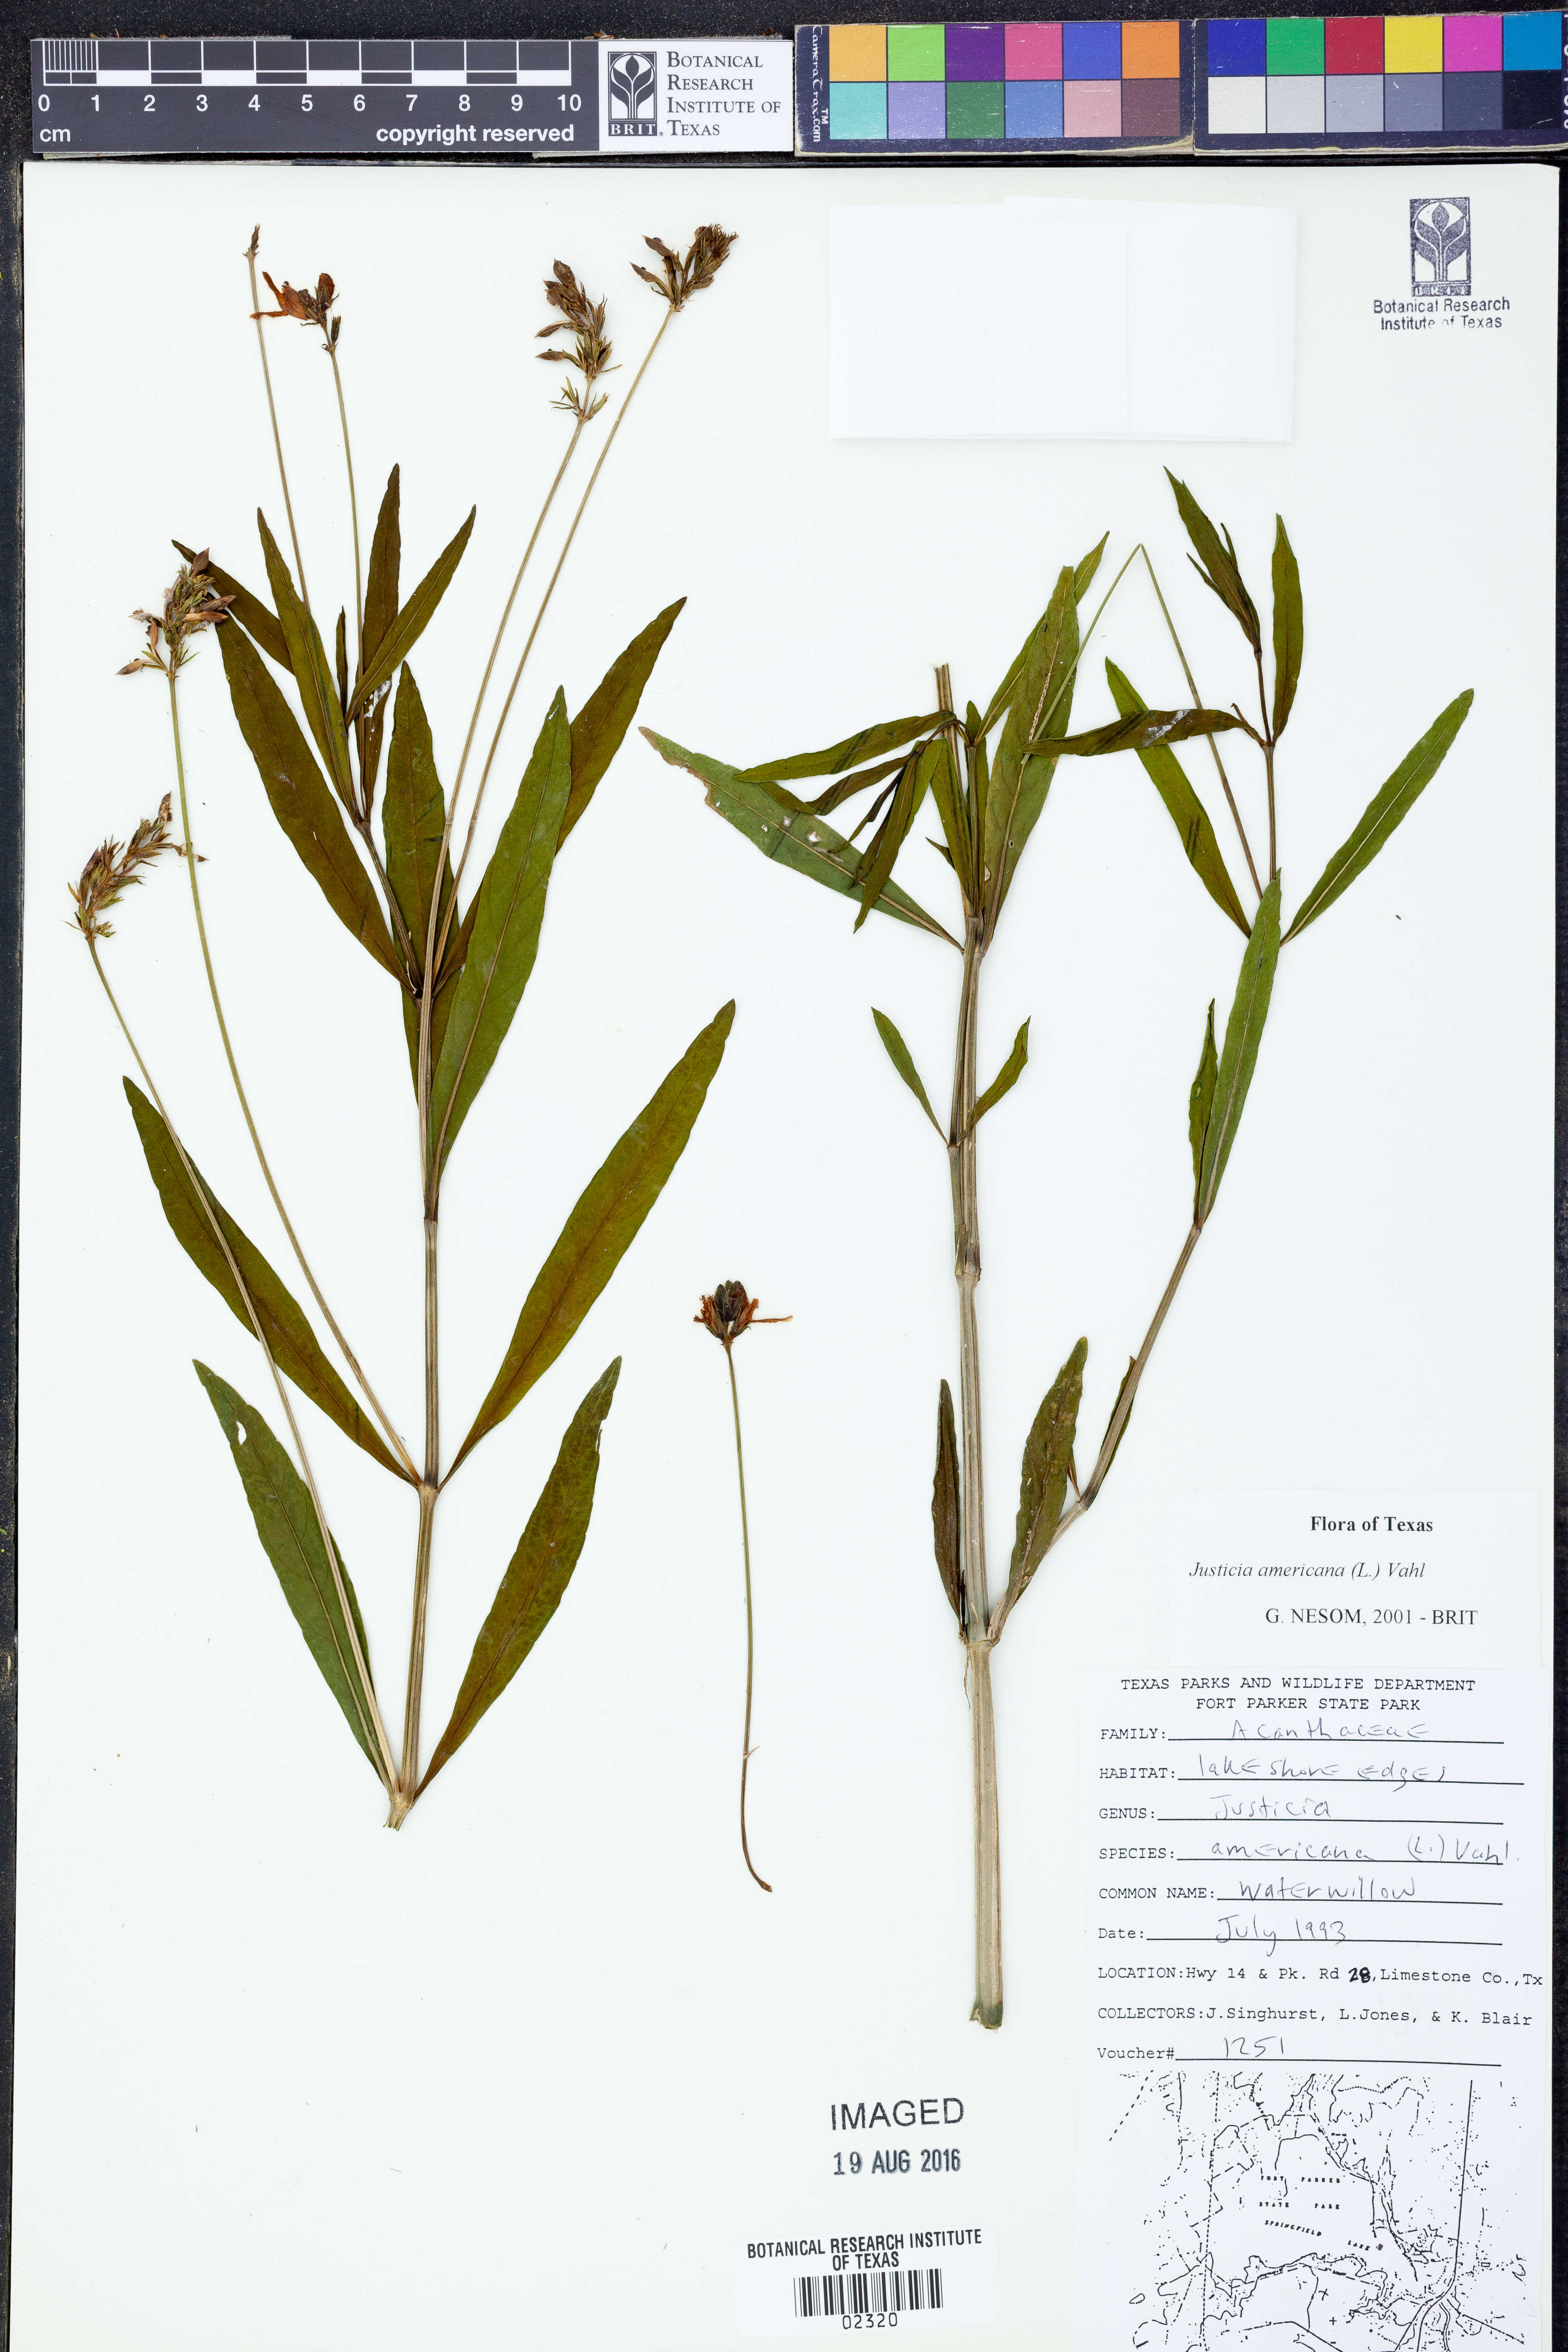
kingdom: Plantae
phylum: Tracheophyta
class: Magnoliopsida
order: Lamiales
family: Acanthaceae
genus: Dianthera
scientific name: Dianthera americana
